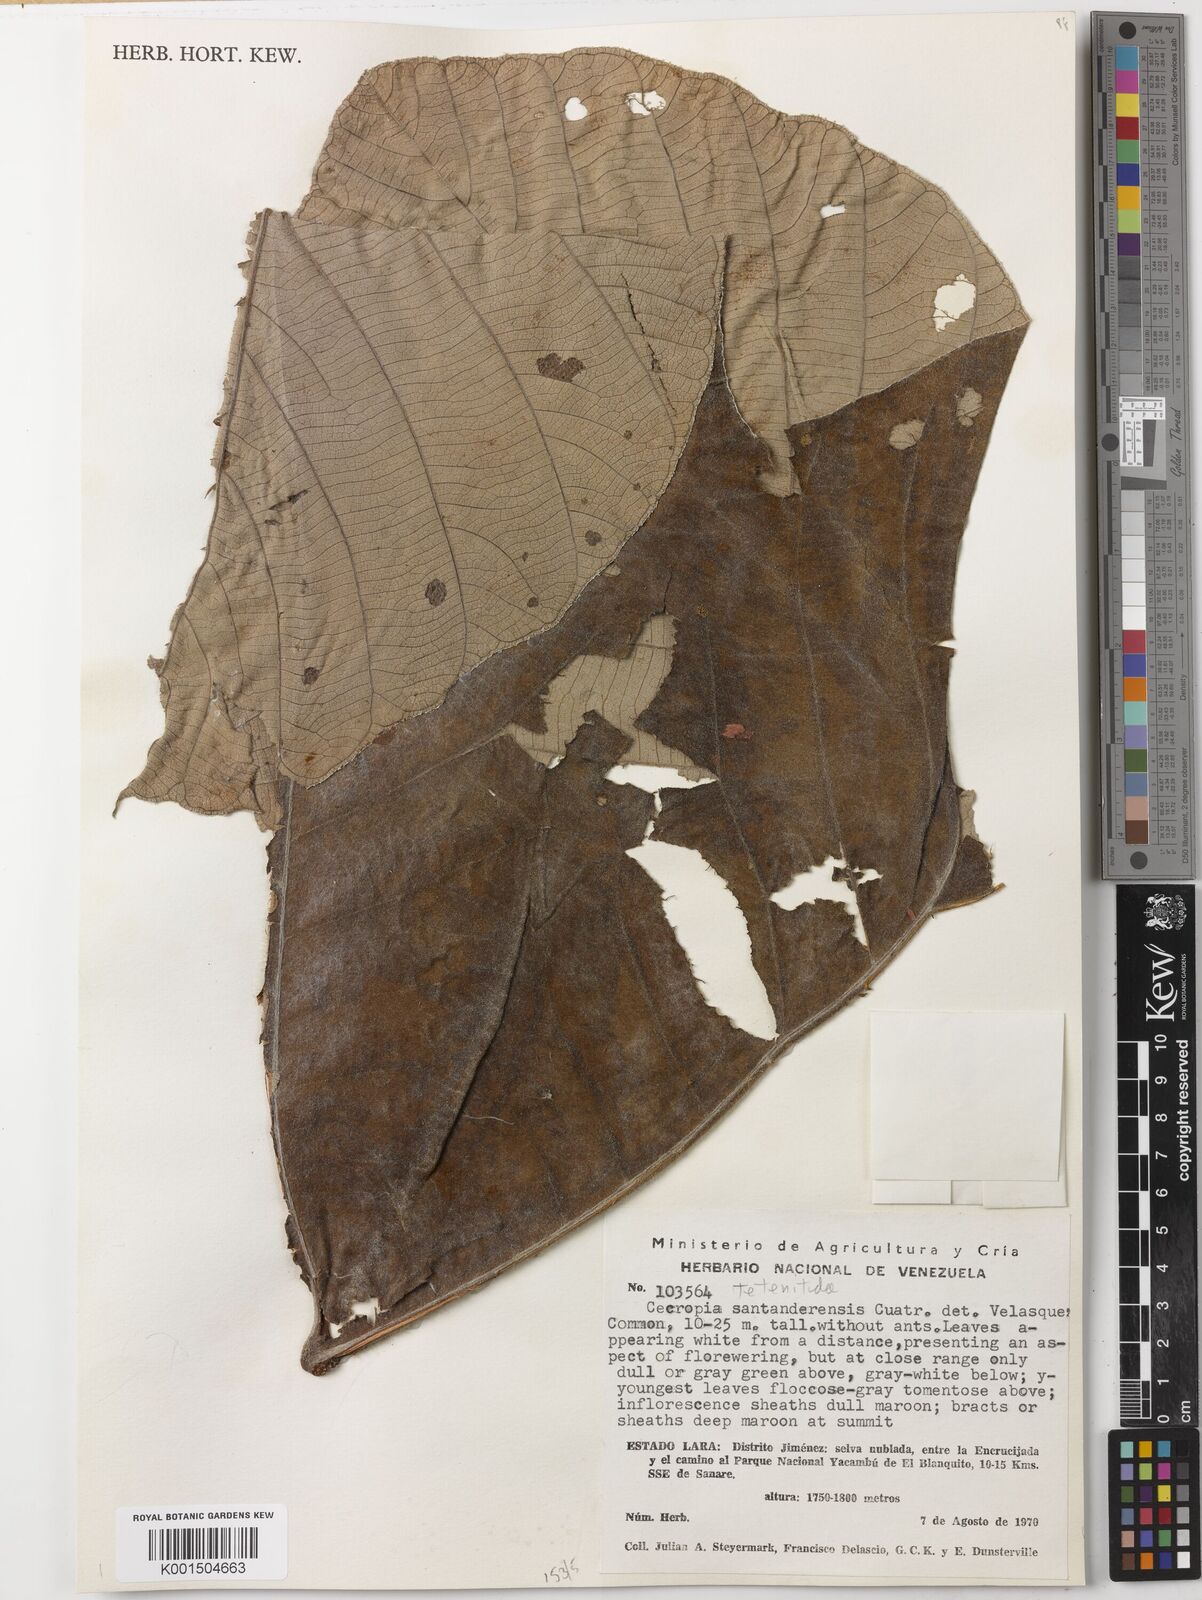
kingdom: Plantae
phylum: Tracheophyta
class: Magnoliopsida
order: Rosales
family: Urticaceae
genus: Cecropia
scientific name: Cecropia telenitida
